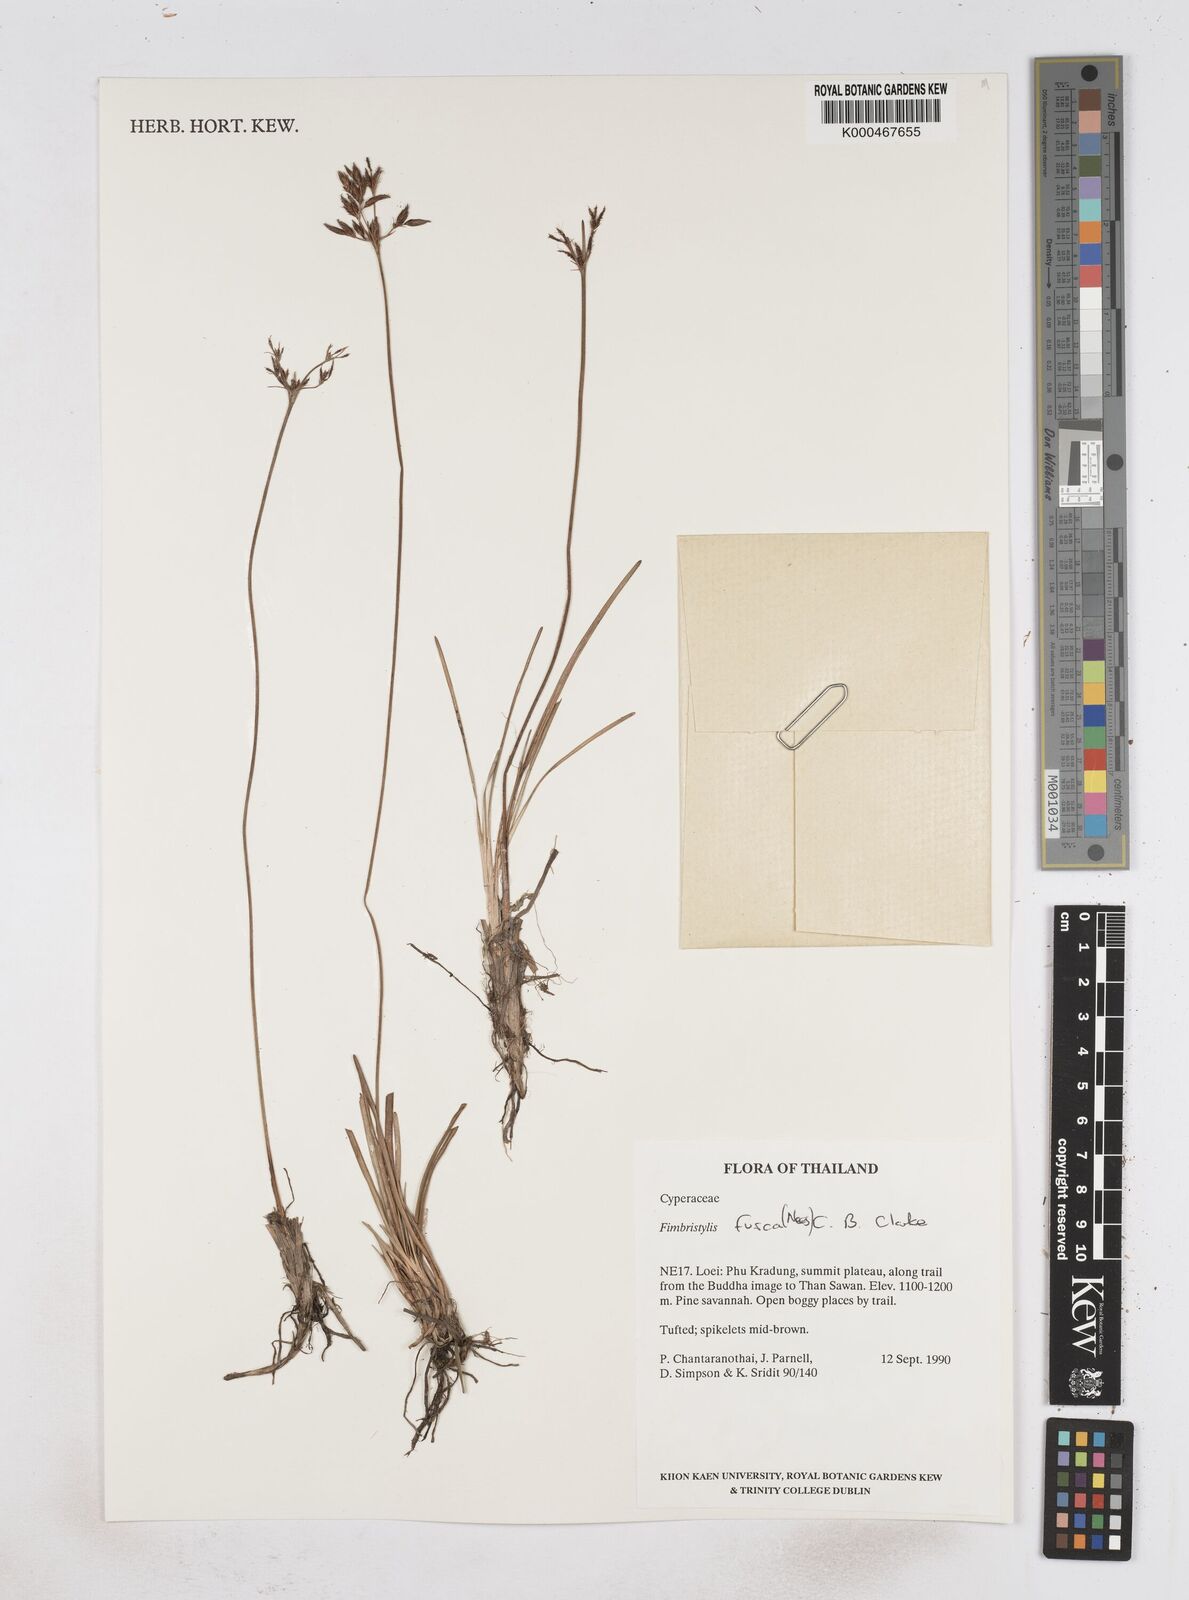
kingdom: Plantae
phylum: Tracheophyta
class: Liliopsida
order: Poales
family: Cyperaceae
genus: Fimbristylis
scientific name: Fimbristylis fusca
